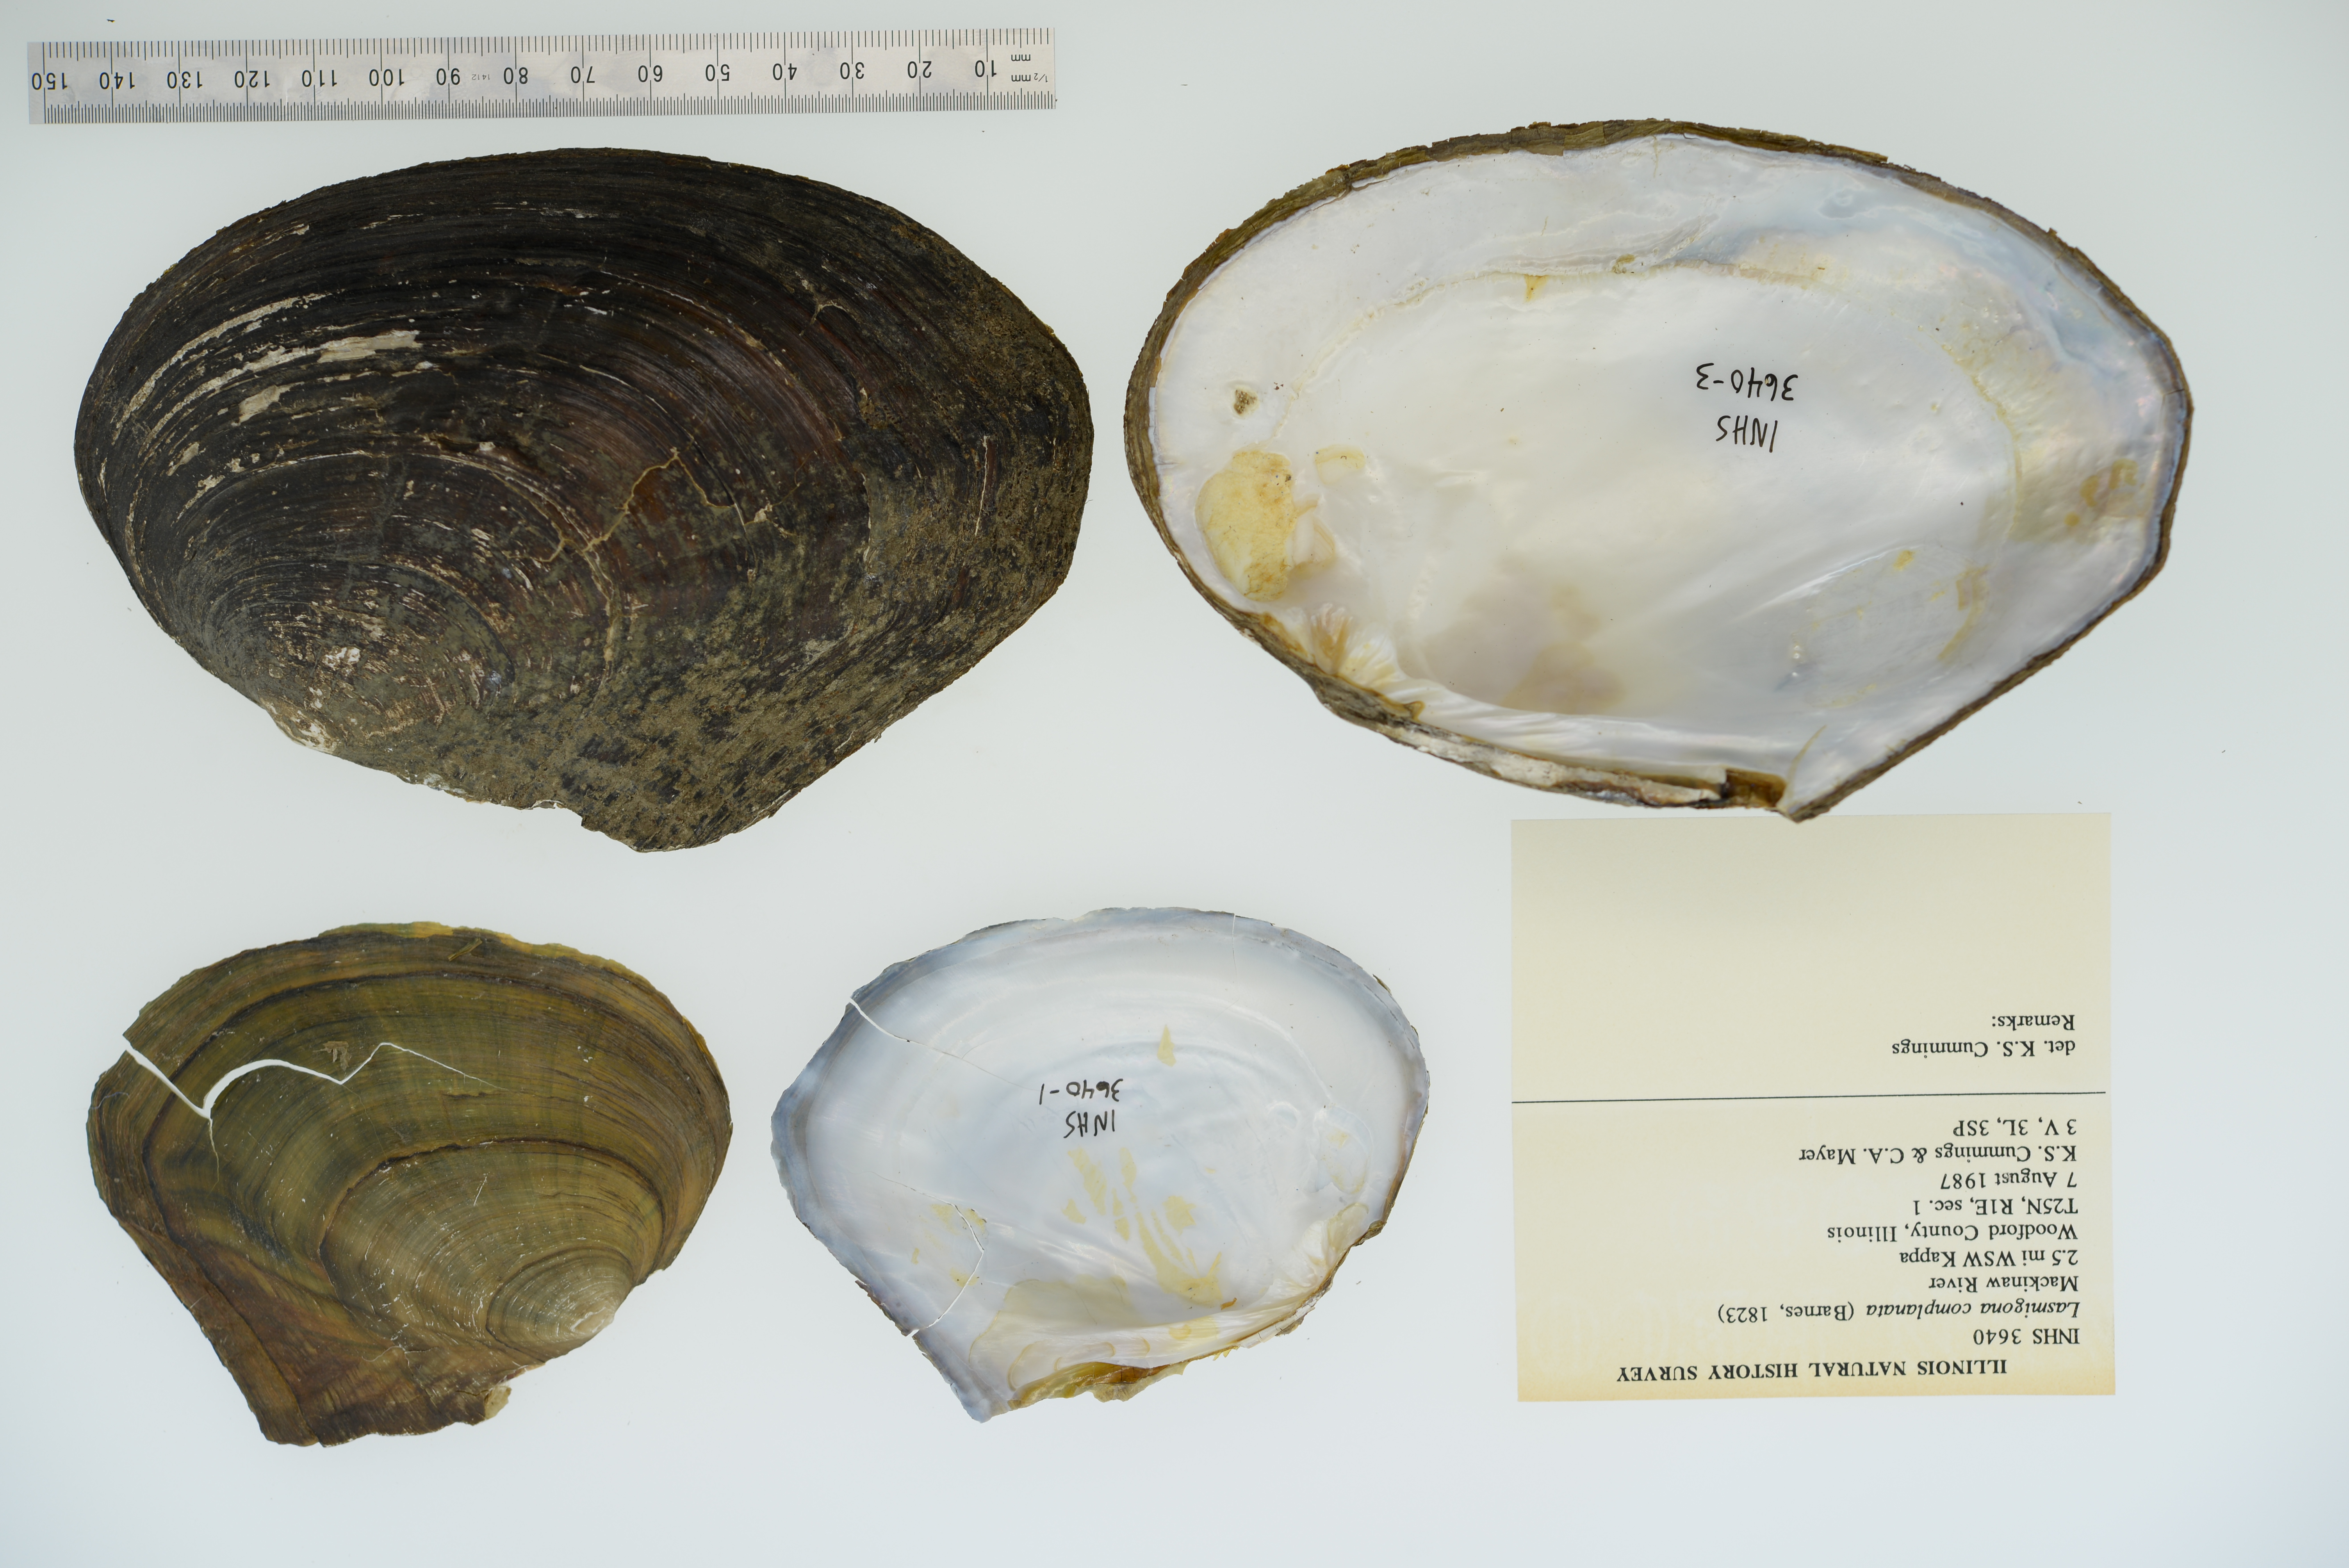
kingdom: Animalia
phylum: Mollusca
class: Bivalvia
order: Unionida
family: Unionidae
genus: Lasmigona
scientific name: Lasmigona complanata
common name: White heelsplitter
